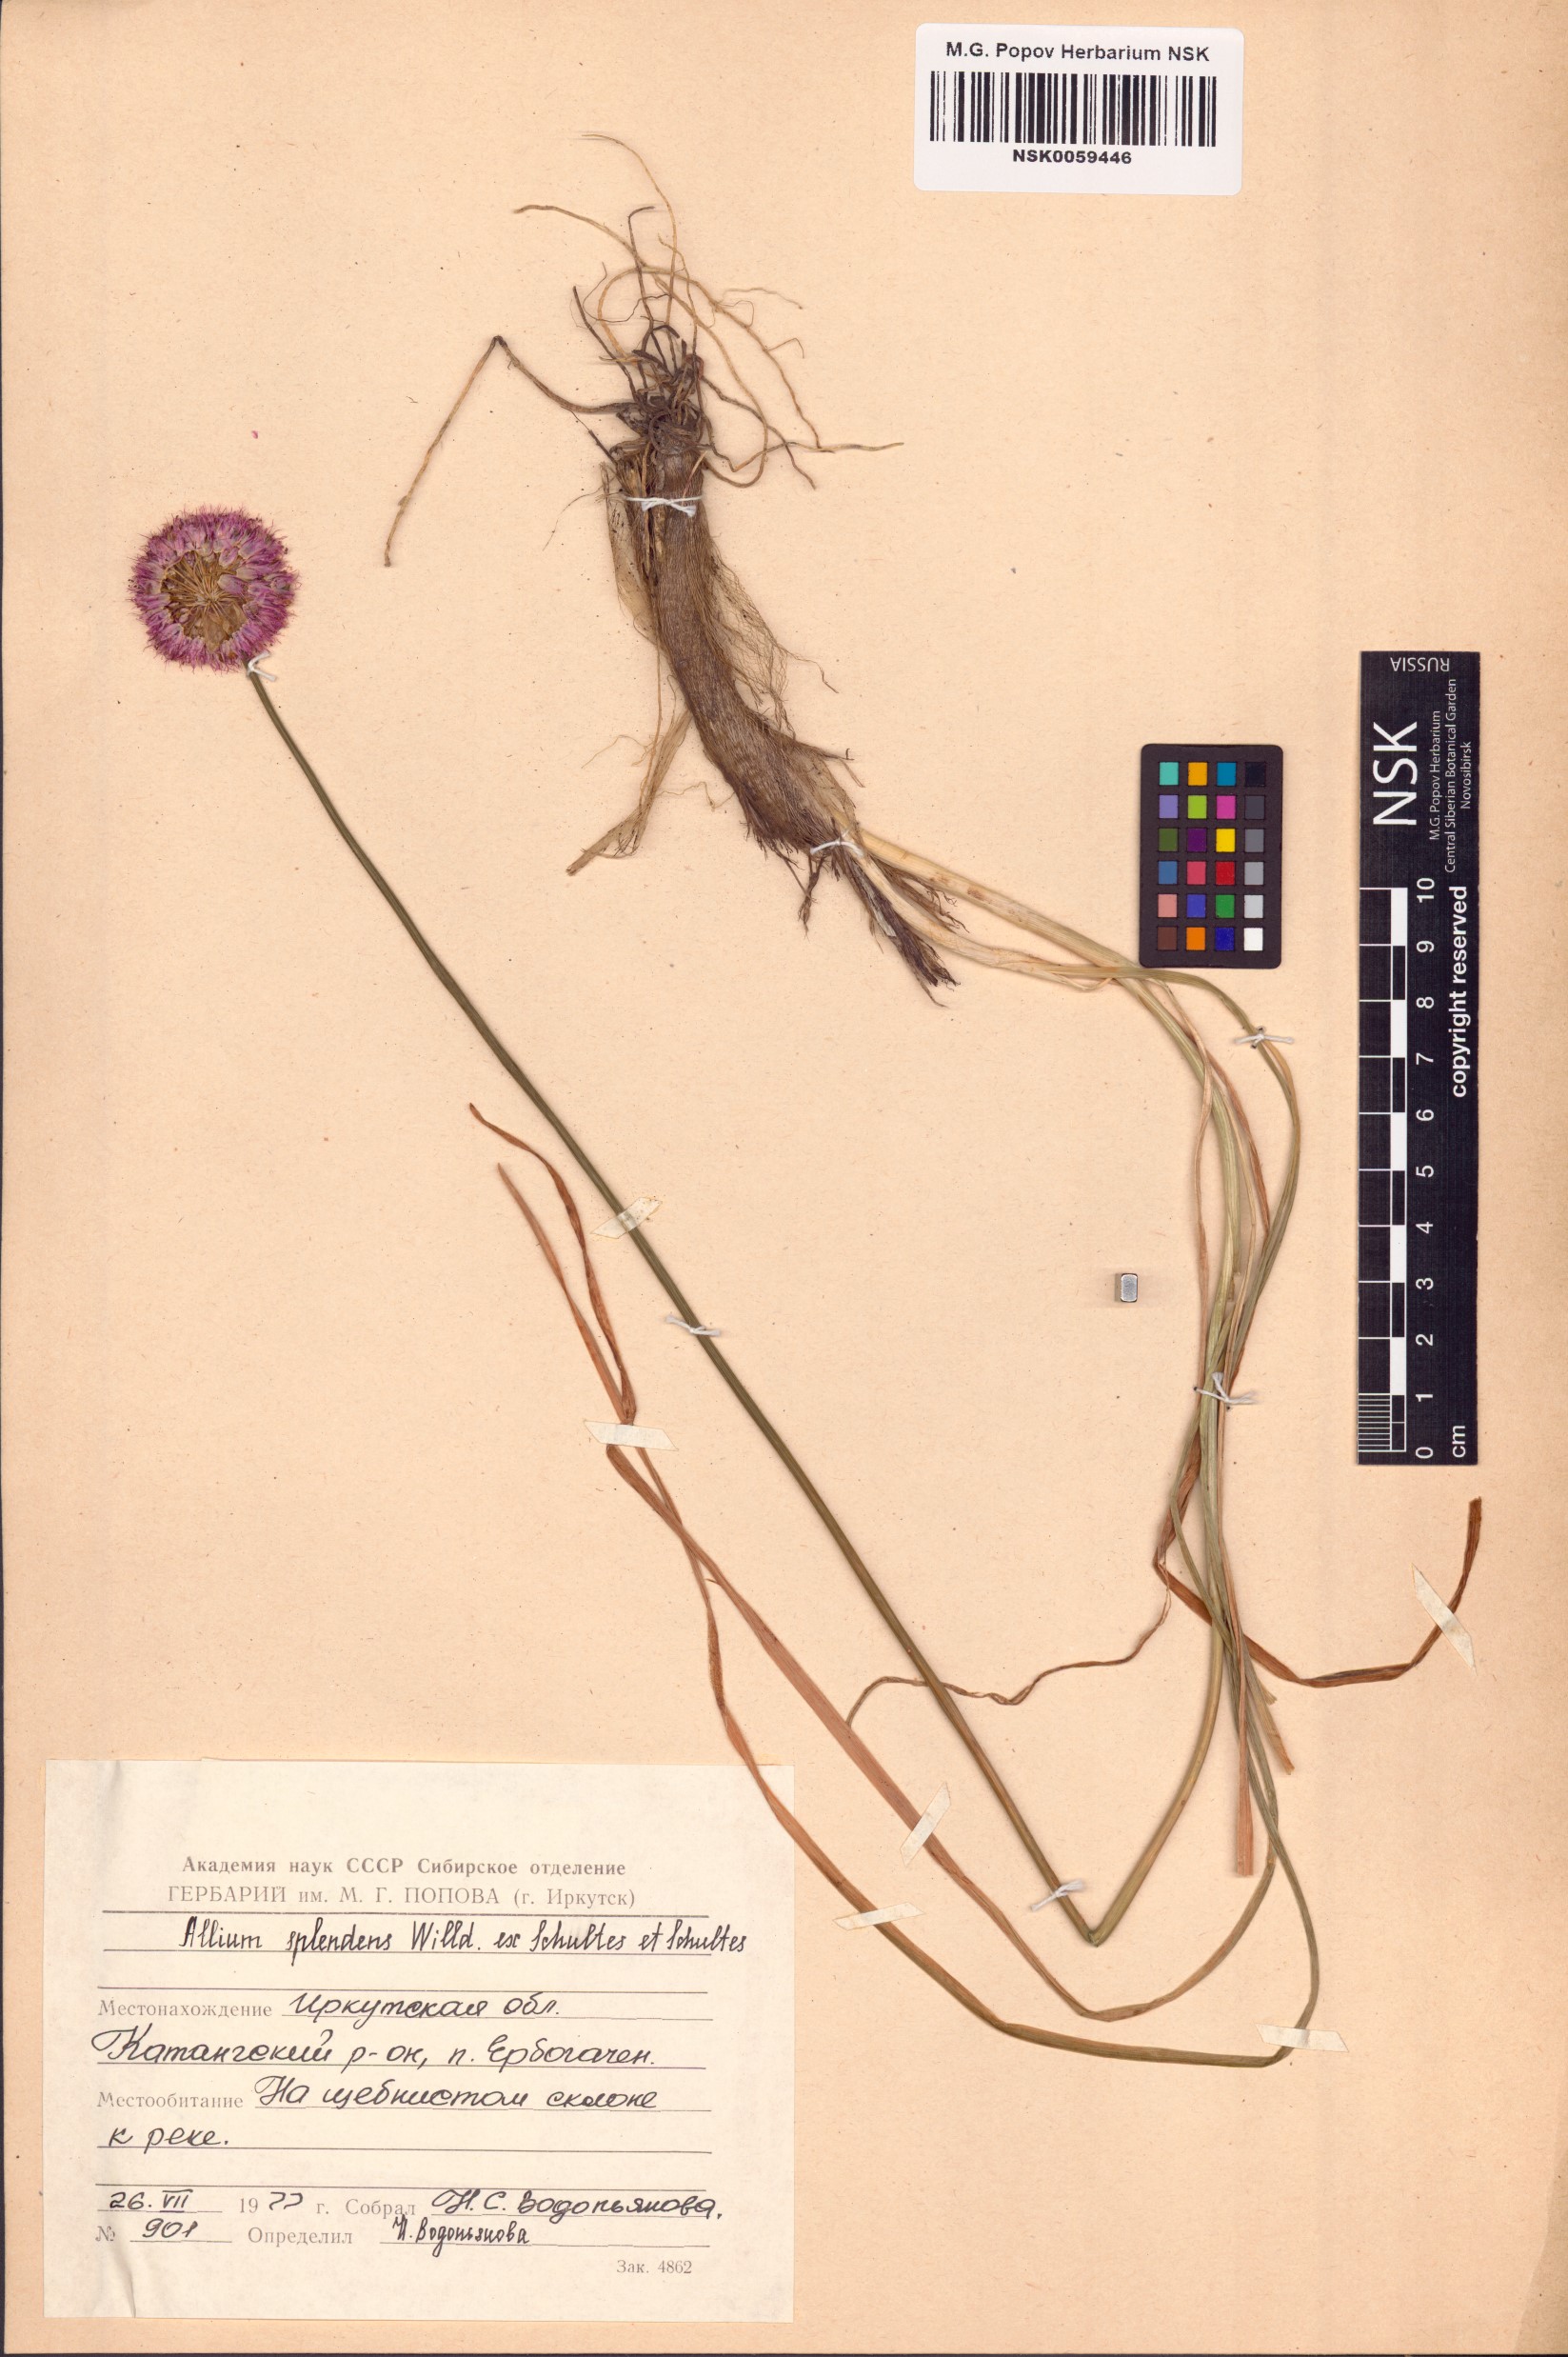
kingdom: Plantae
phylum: Tracheophyta
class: Liliopsida
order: Asparagales
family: Amaryllidaceae
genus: Allium
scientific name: Allium splendens
